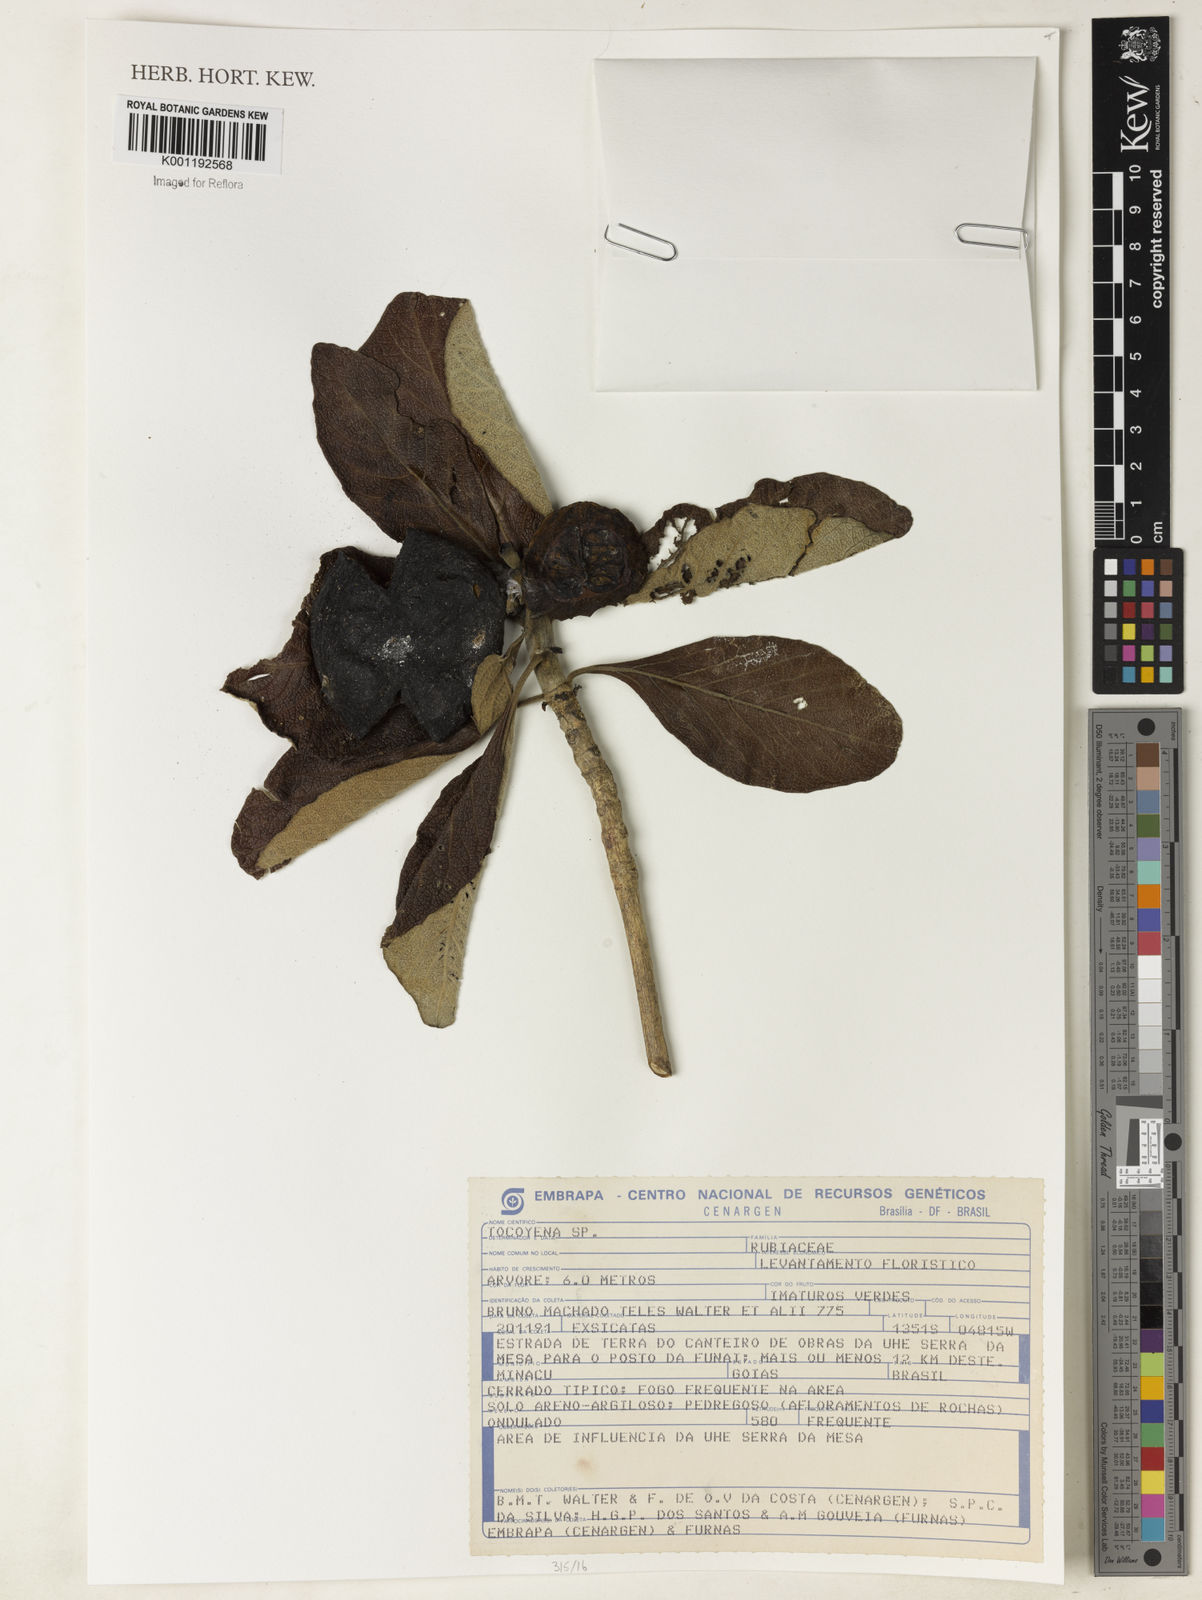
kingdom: Plantae
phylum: Tracheophyta
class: Magnoliopsida
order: Gentianales
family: Rubiaceae
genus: Tocoyena
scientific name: Tocoyena sprucei
